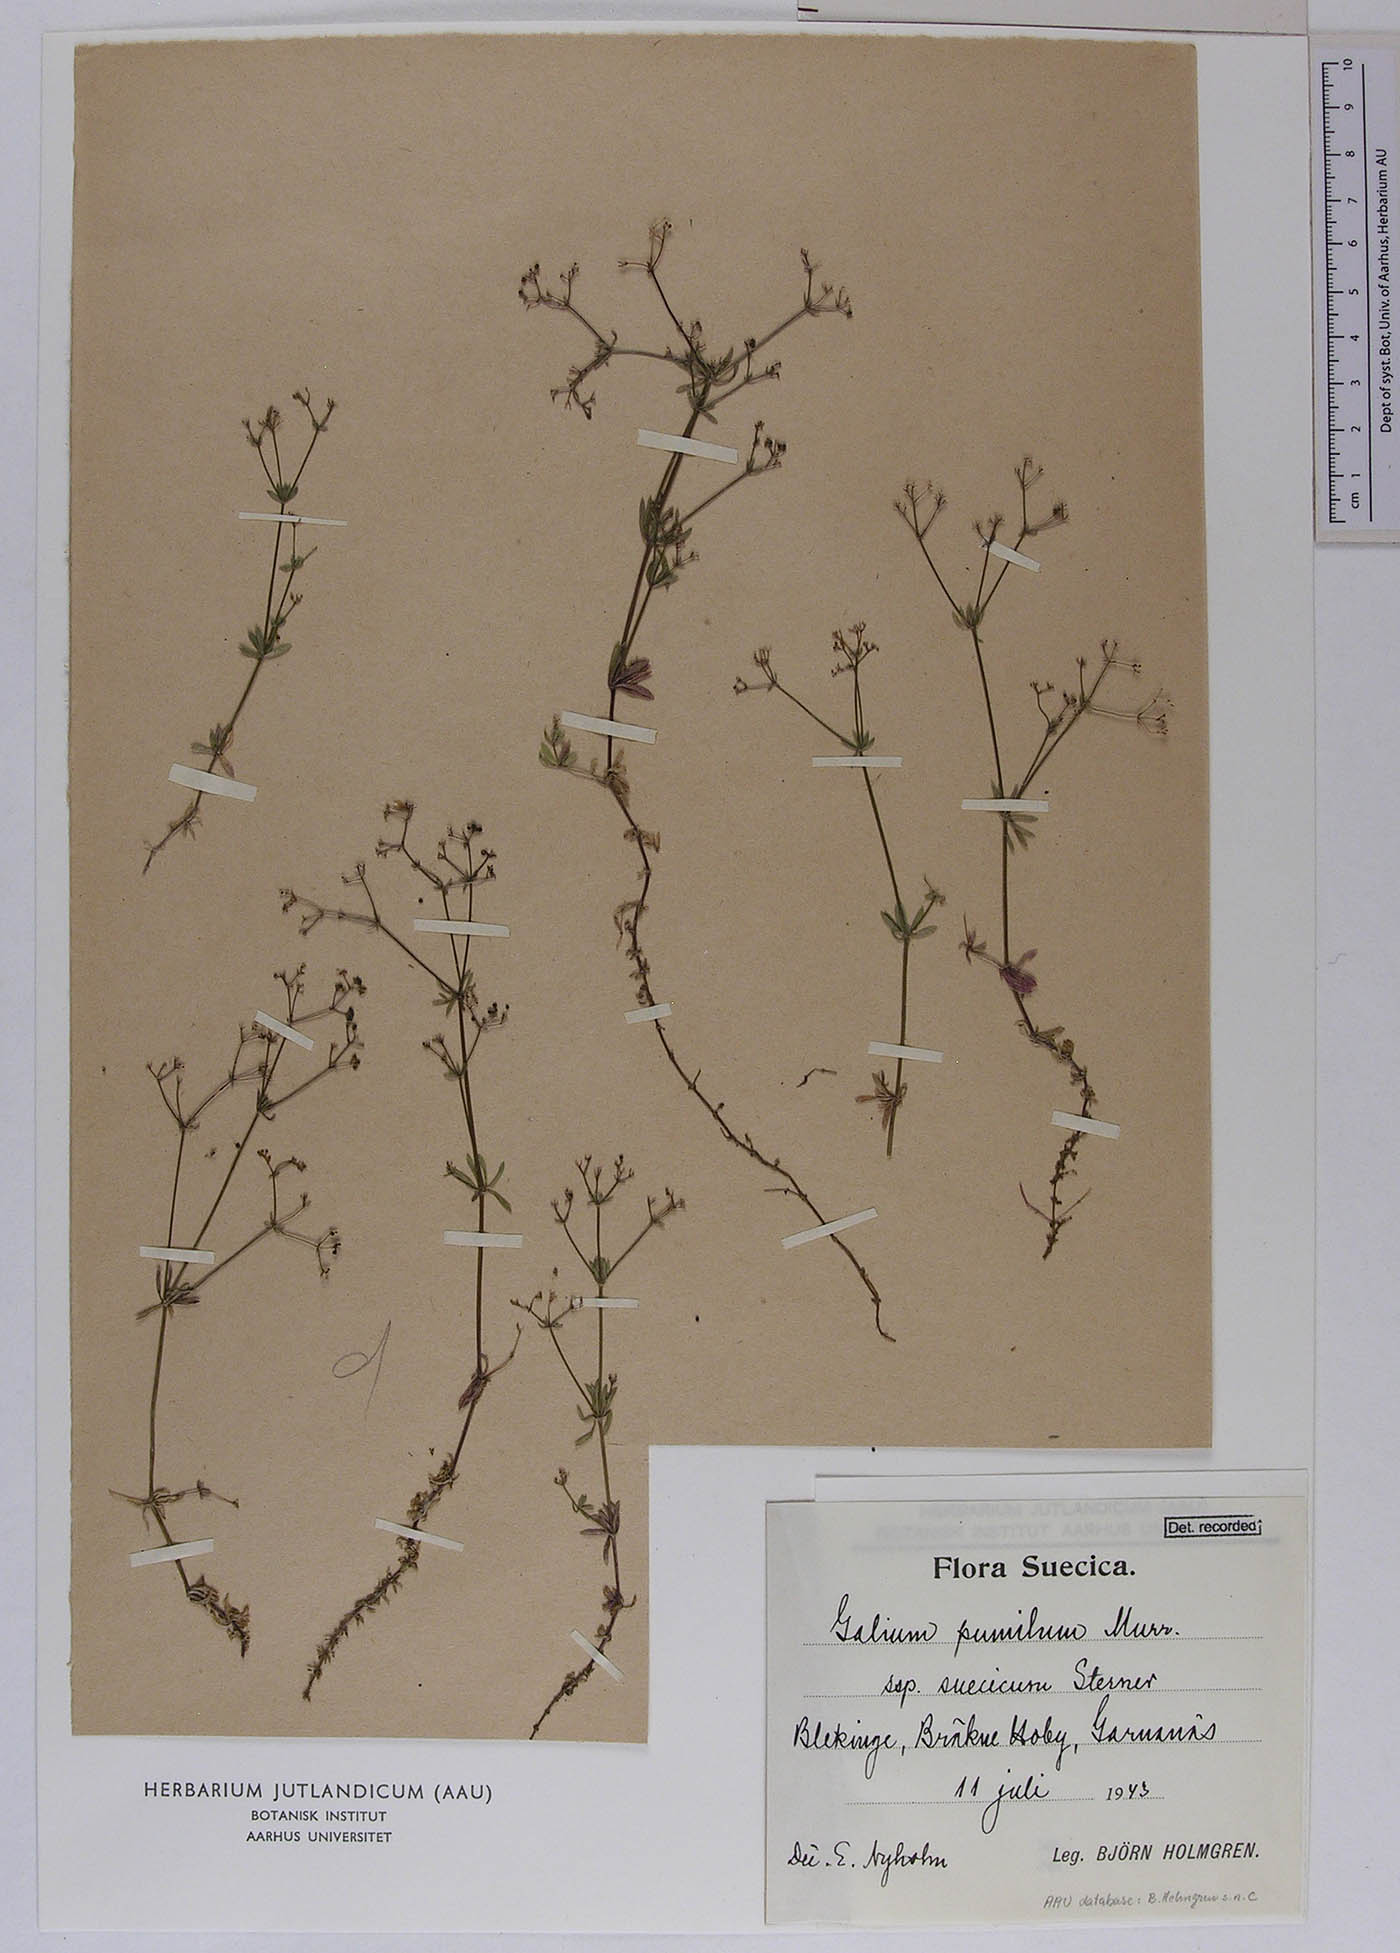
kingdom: Plantae
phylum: Tracheophyta
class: Magnoliopsida
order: Gentianales
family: Rubiaceae
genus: Galium
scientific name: Galium pusillum
